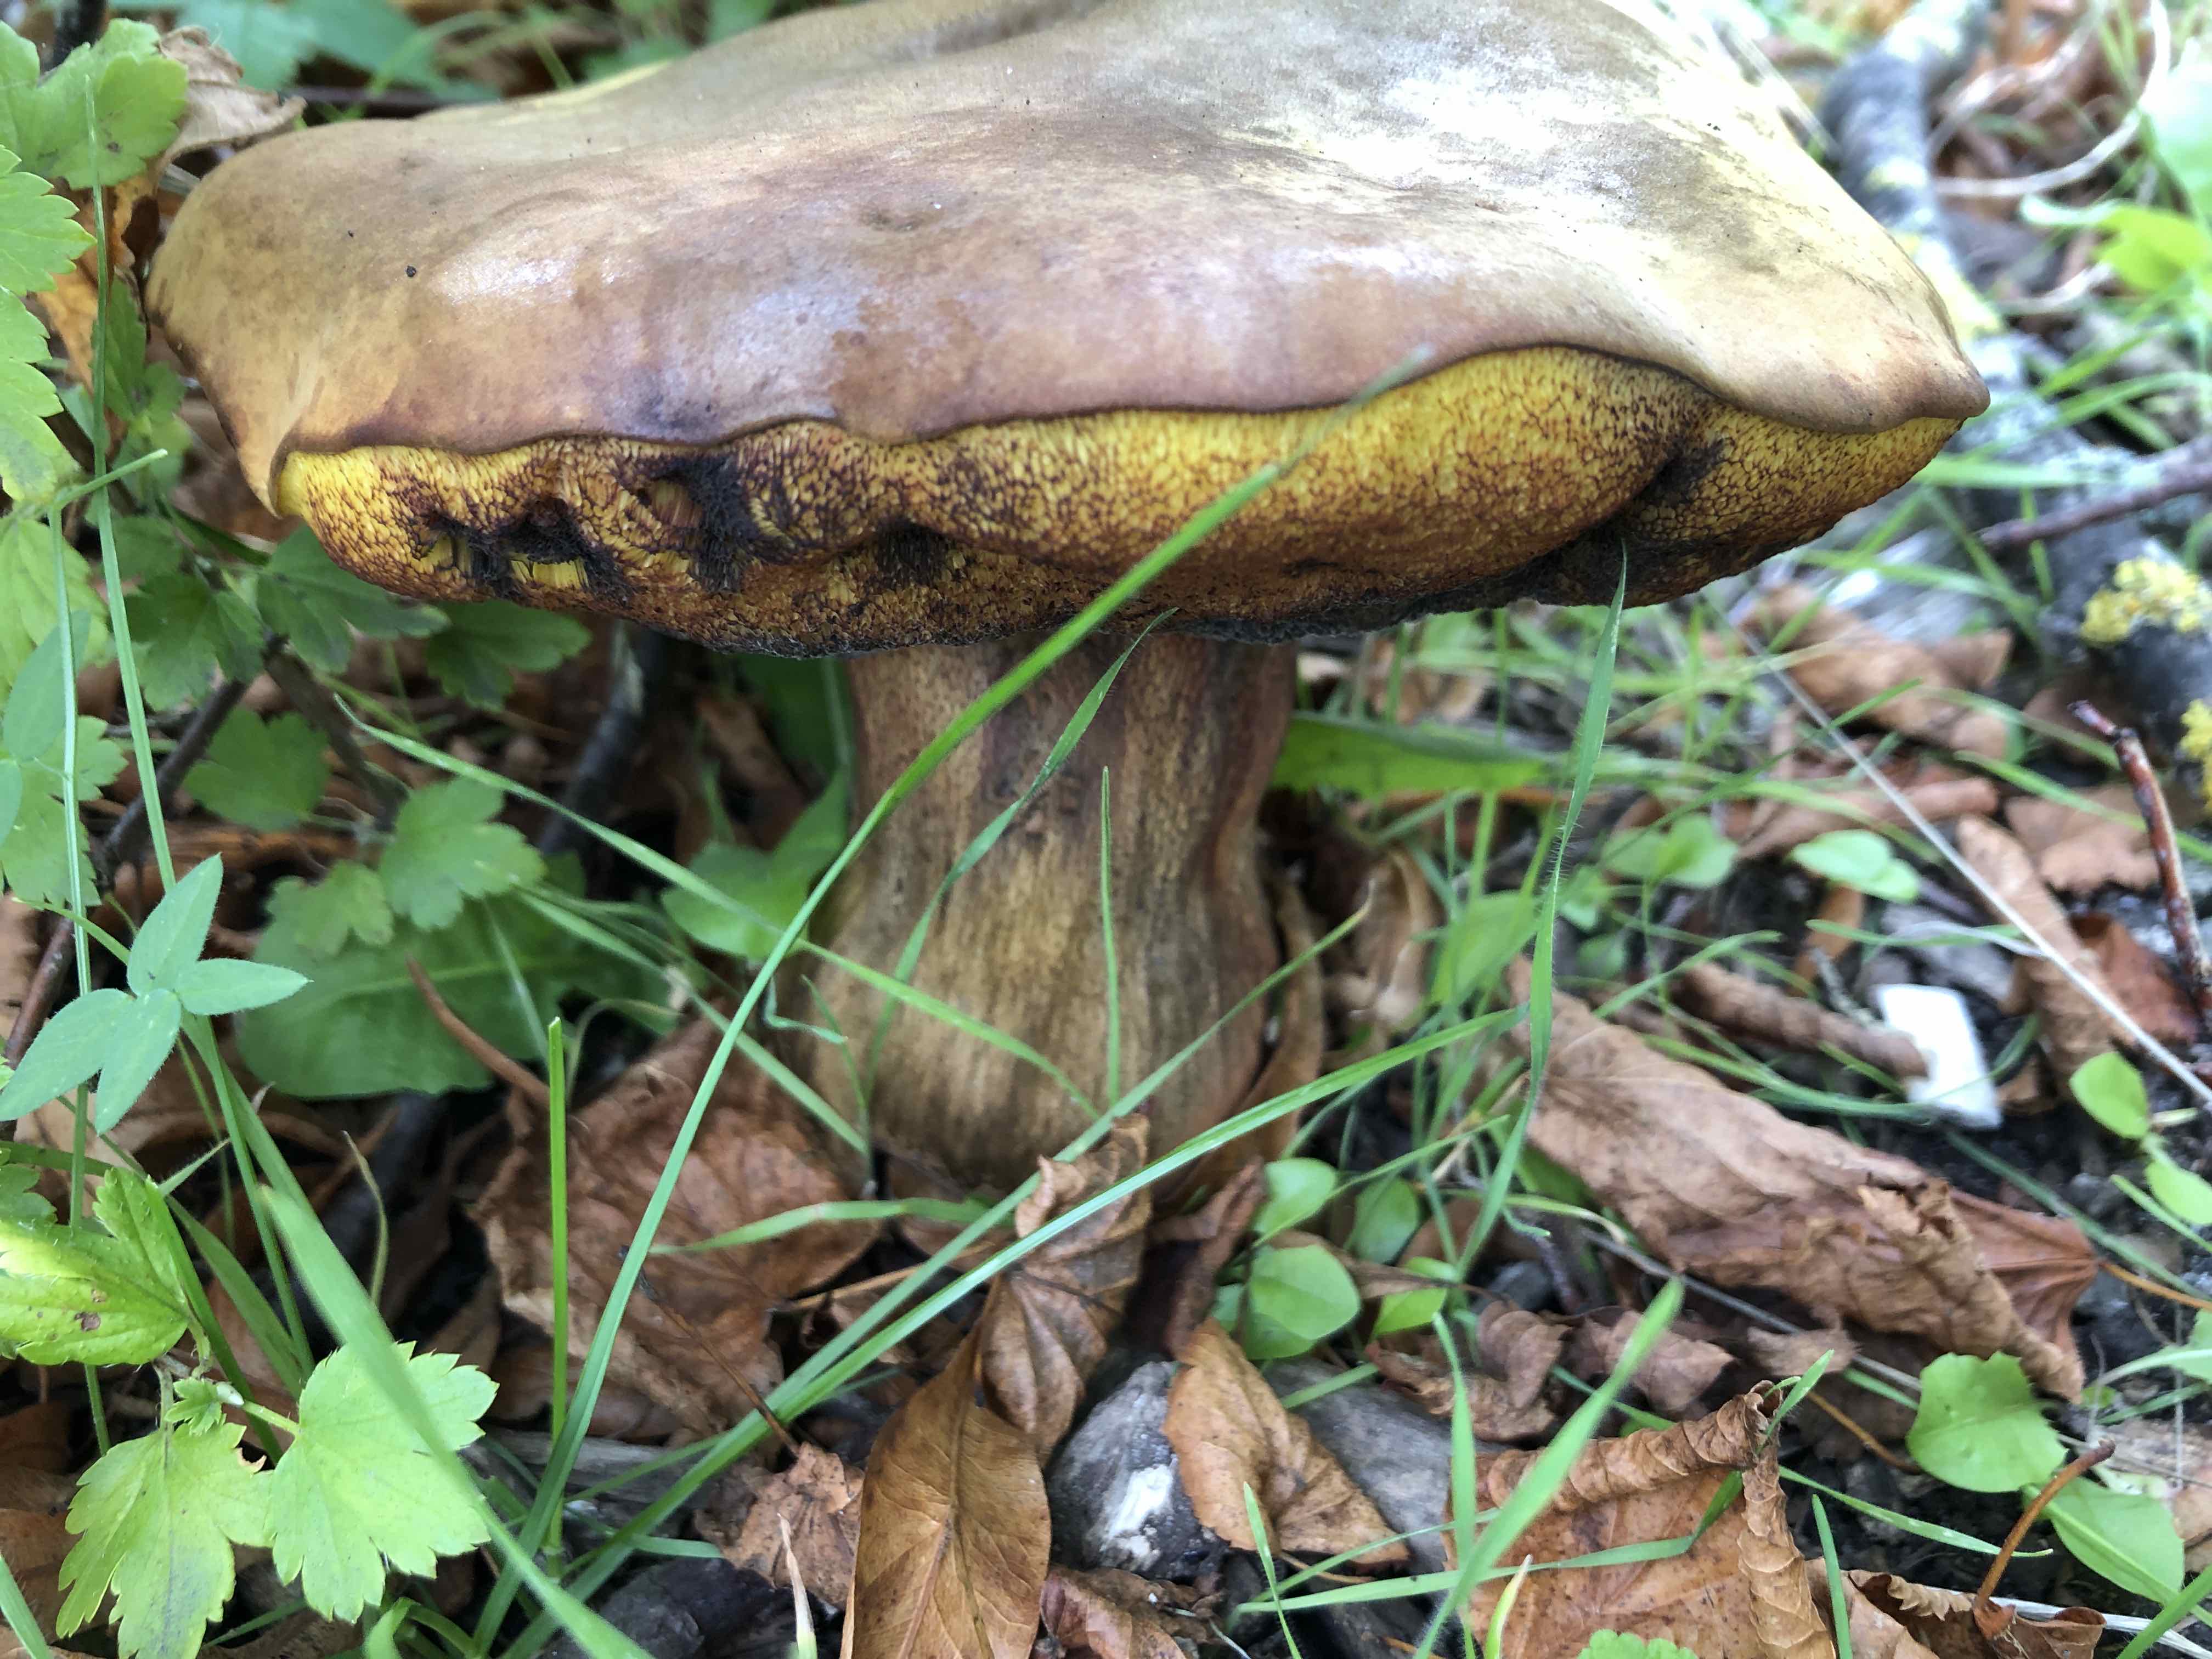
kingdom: Fungi
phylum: Basidiomycota
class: Agaricomycetes
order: Boletales
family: Boletaceae
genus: Suillellus
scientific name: Suillellus luridus
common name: netstokket indigorørhat
